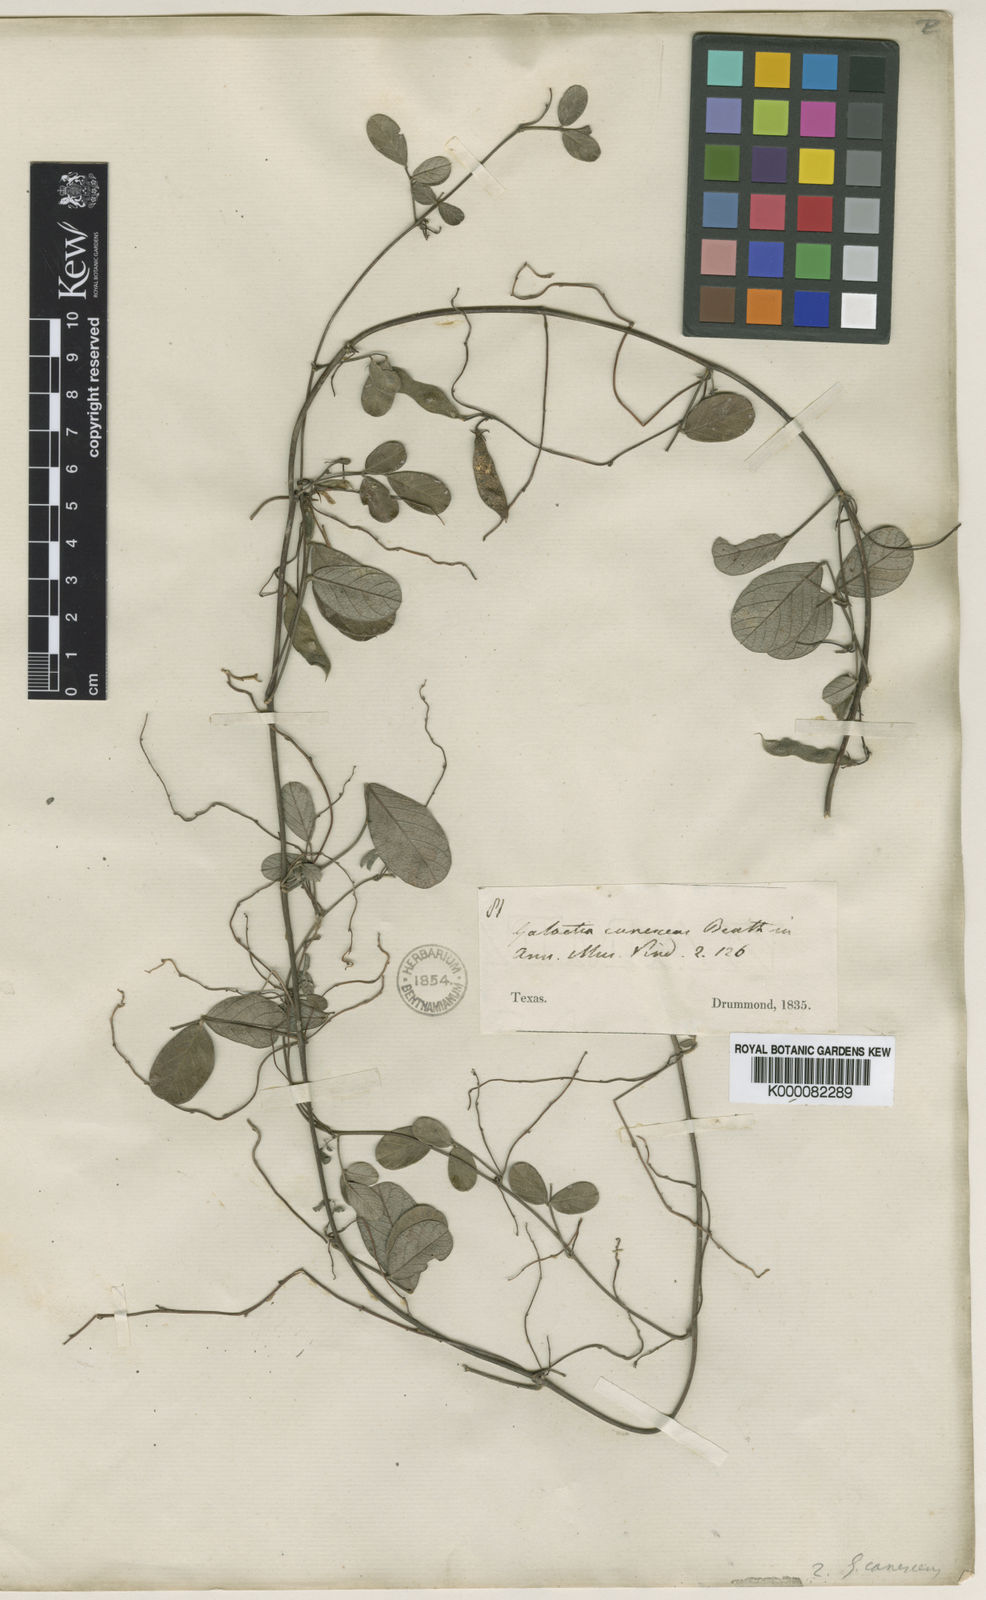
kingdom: Plantae
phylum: Tracheophyta
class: Magnoliopsida
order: Fabales
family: Fabaceae
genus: Galactia
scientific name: Galactia canescens
